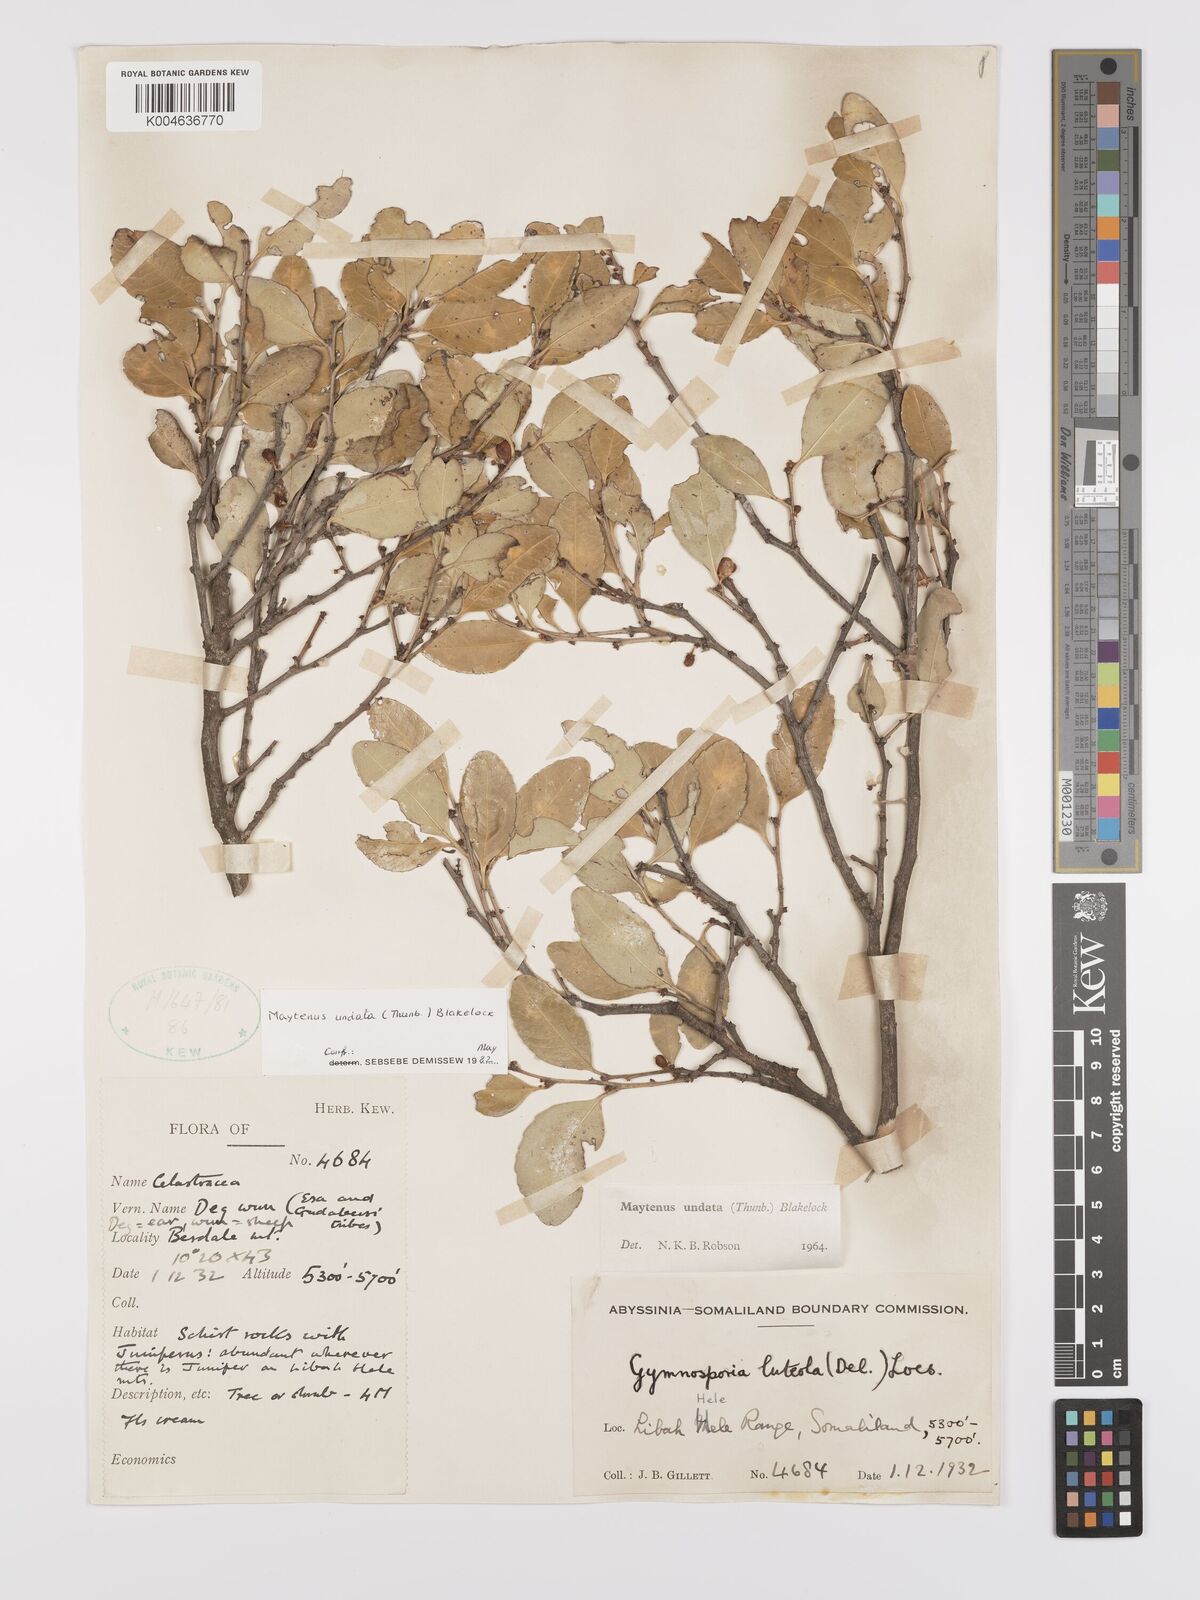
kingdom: Plantae
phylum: Tracheophyta
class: Magnoliopsida
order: Celastrales
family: Celastraceae
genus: Gymnosporia
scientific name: Gymnosporia undata
